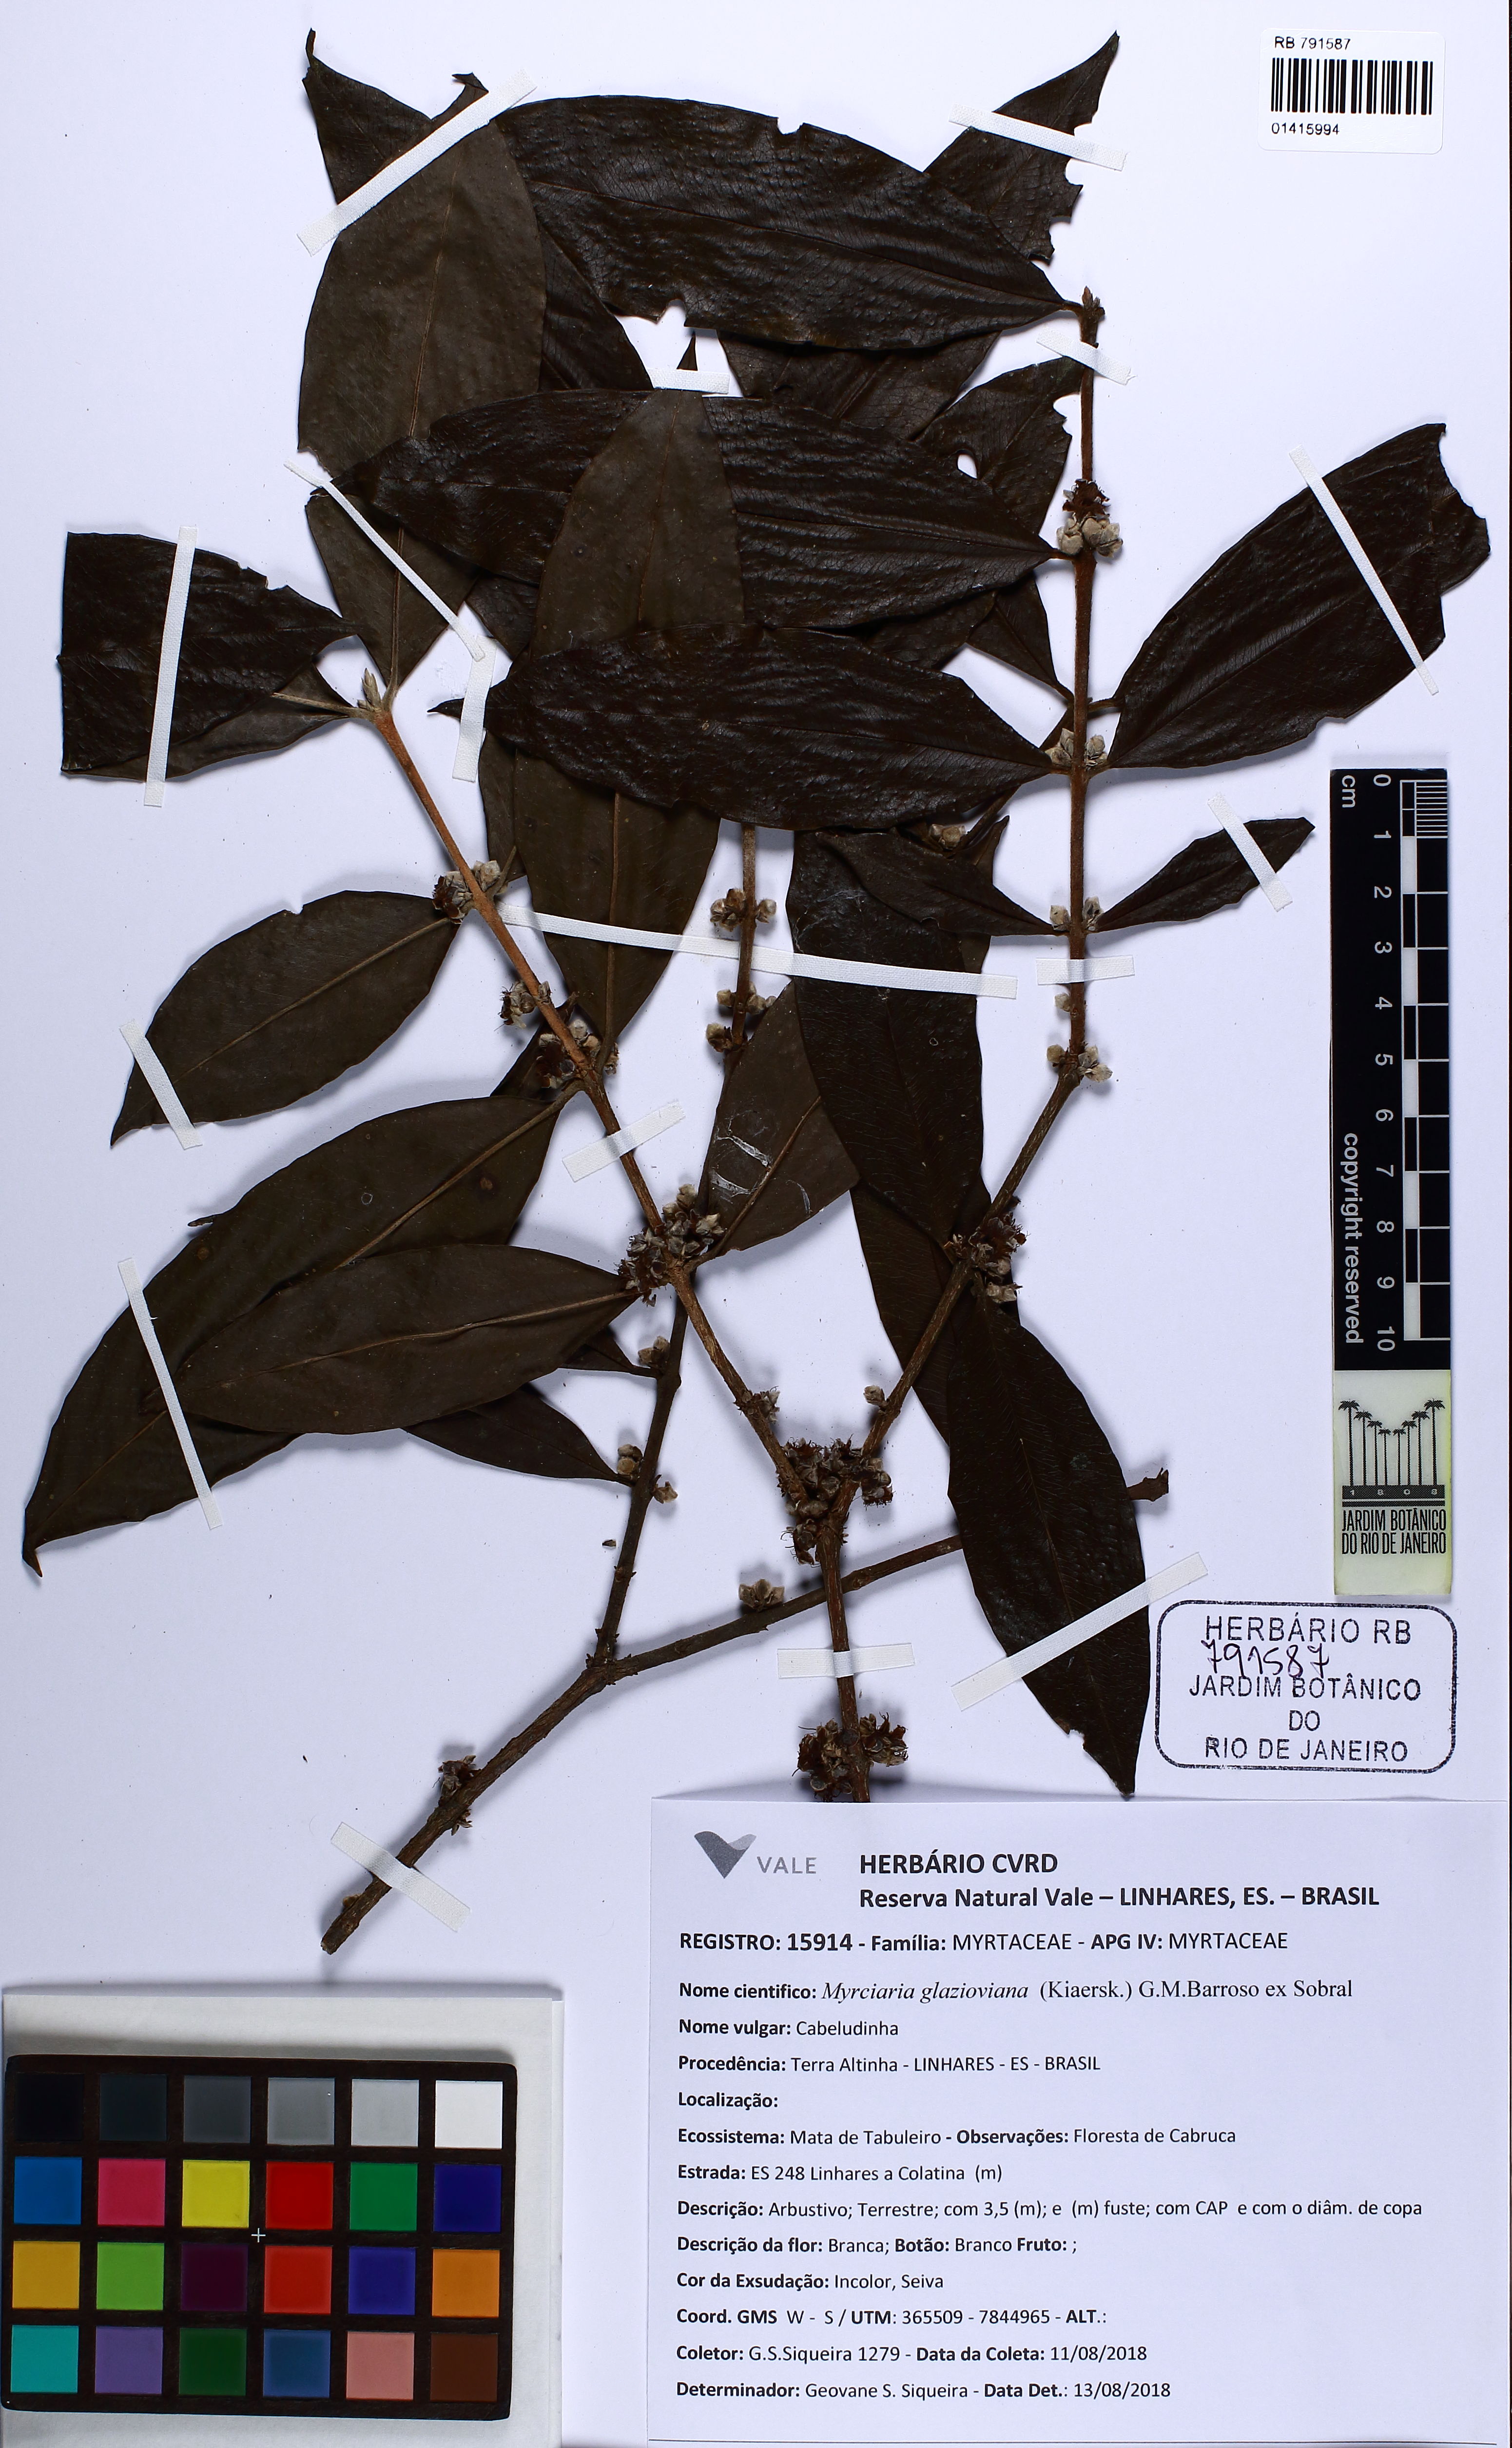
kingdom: Plantae
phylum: Tracheophyta
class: Magnoliopsida
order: Myrtales
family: Myrtaceae
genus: Myrciaria
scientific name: Myrciaria glazioviana
